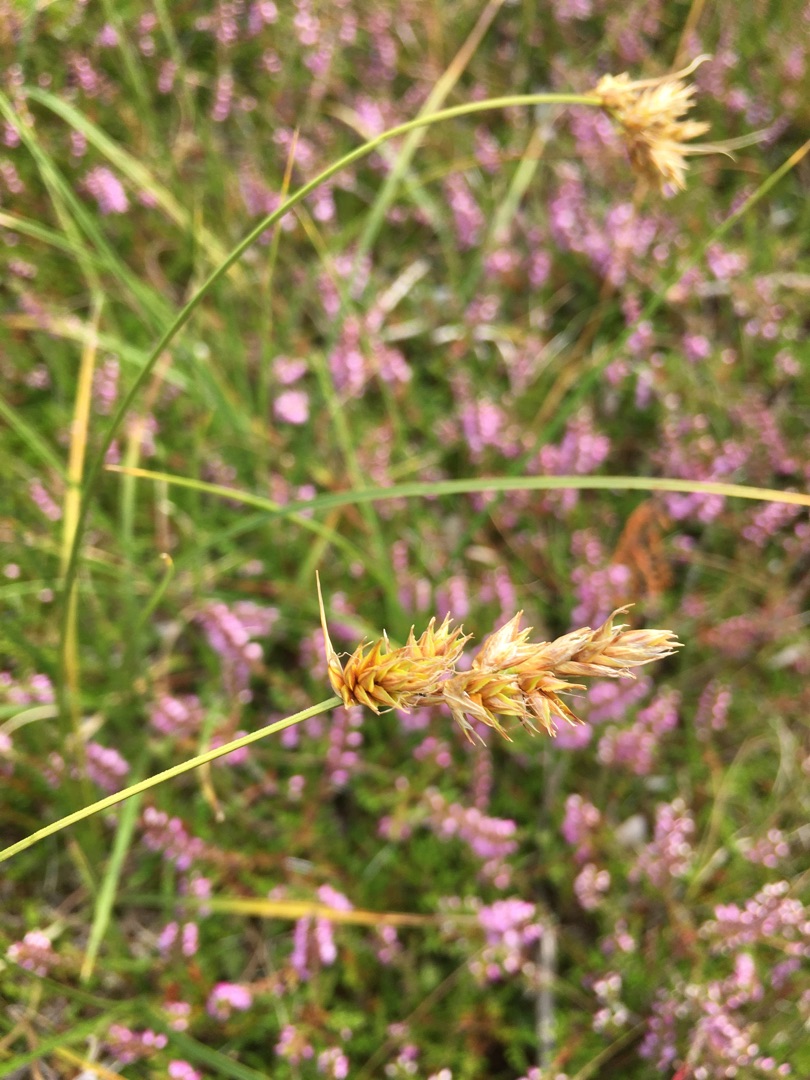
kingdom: Plantae
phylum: Tracheophyta
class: Liliopsida
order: Poales
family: Cyperaceae
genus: Carex
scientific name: Carex arenaria
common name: Sand-star
